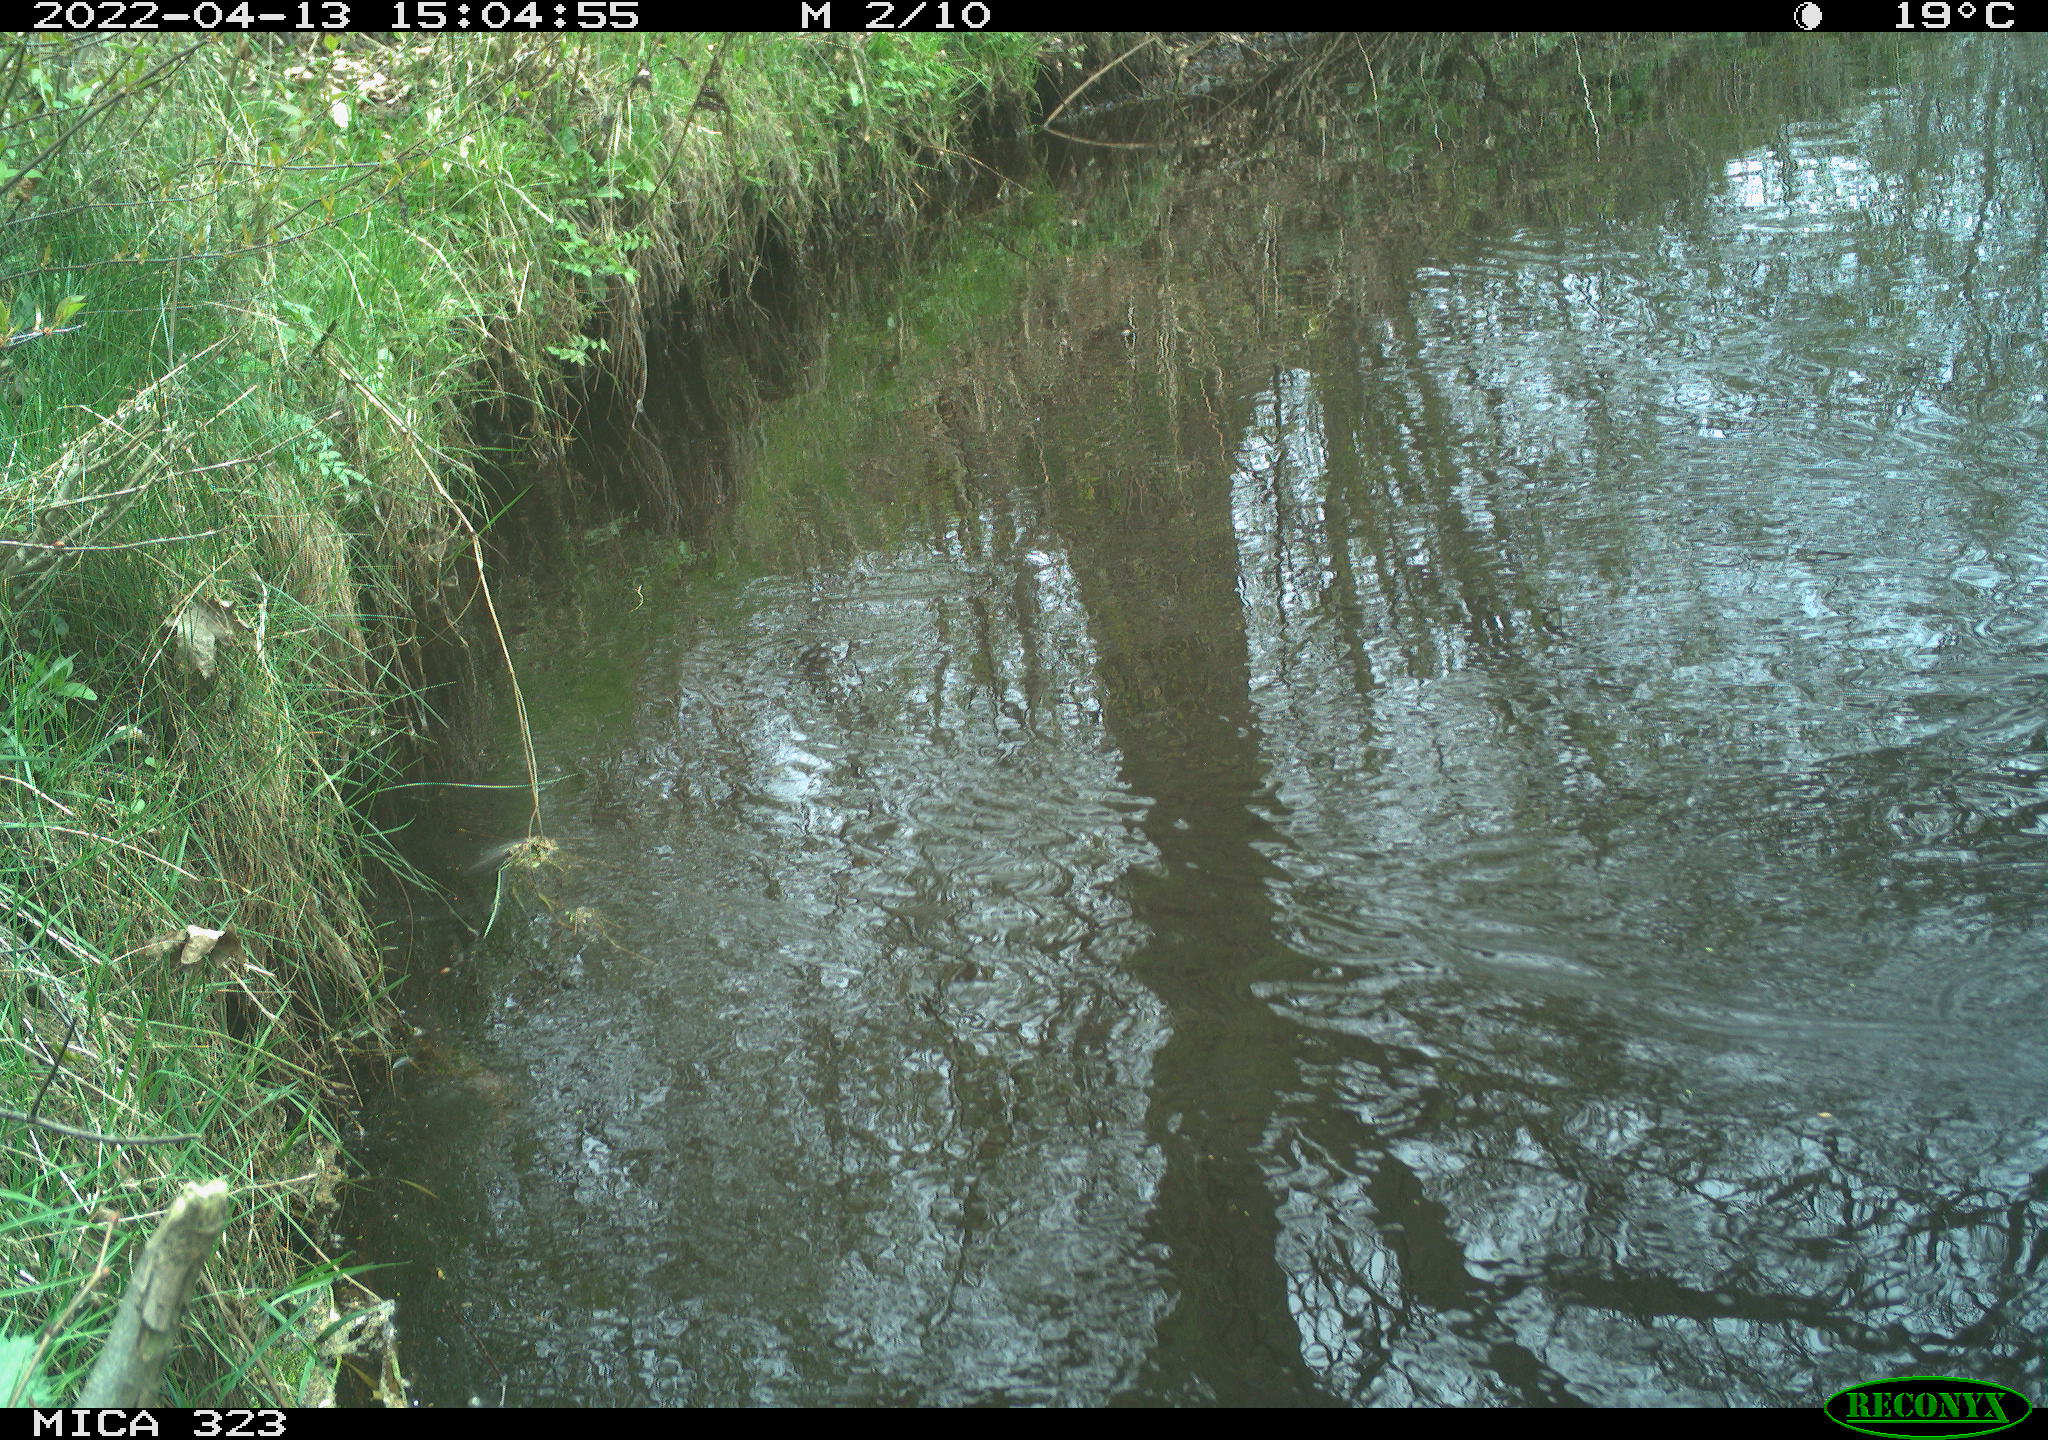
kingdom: Animalia
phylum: Chordata
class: Aves
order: Gruiformes
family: Rallidae
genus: Gallinula
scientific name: Gallinula chloropus
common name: Common moorhen
